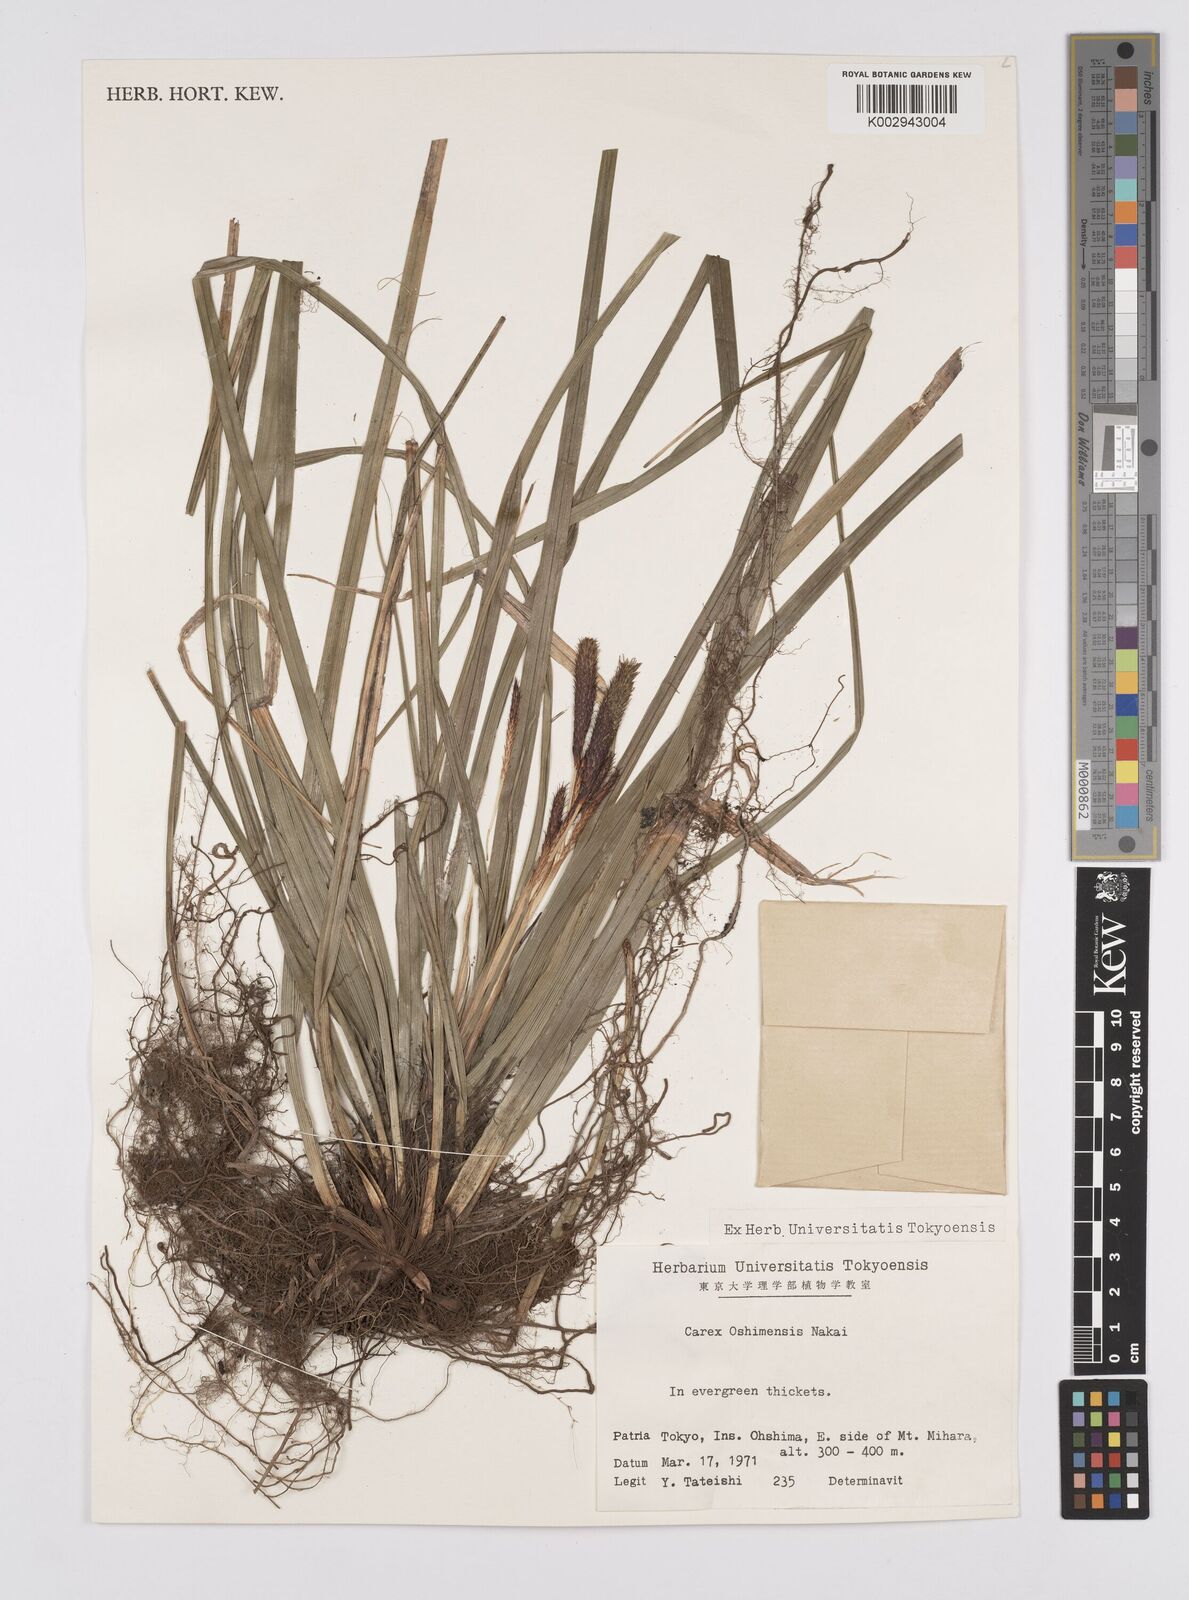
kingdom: Plantae
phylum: Tracheophyta
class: Liliopsida
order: Poales
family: Cyperaceae
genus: Carex
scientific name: Carex oshimensis
